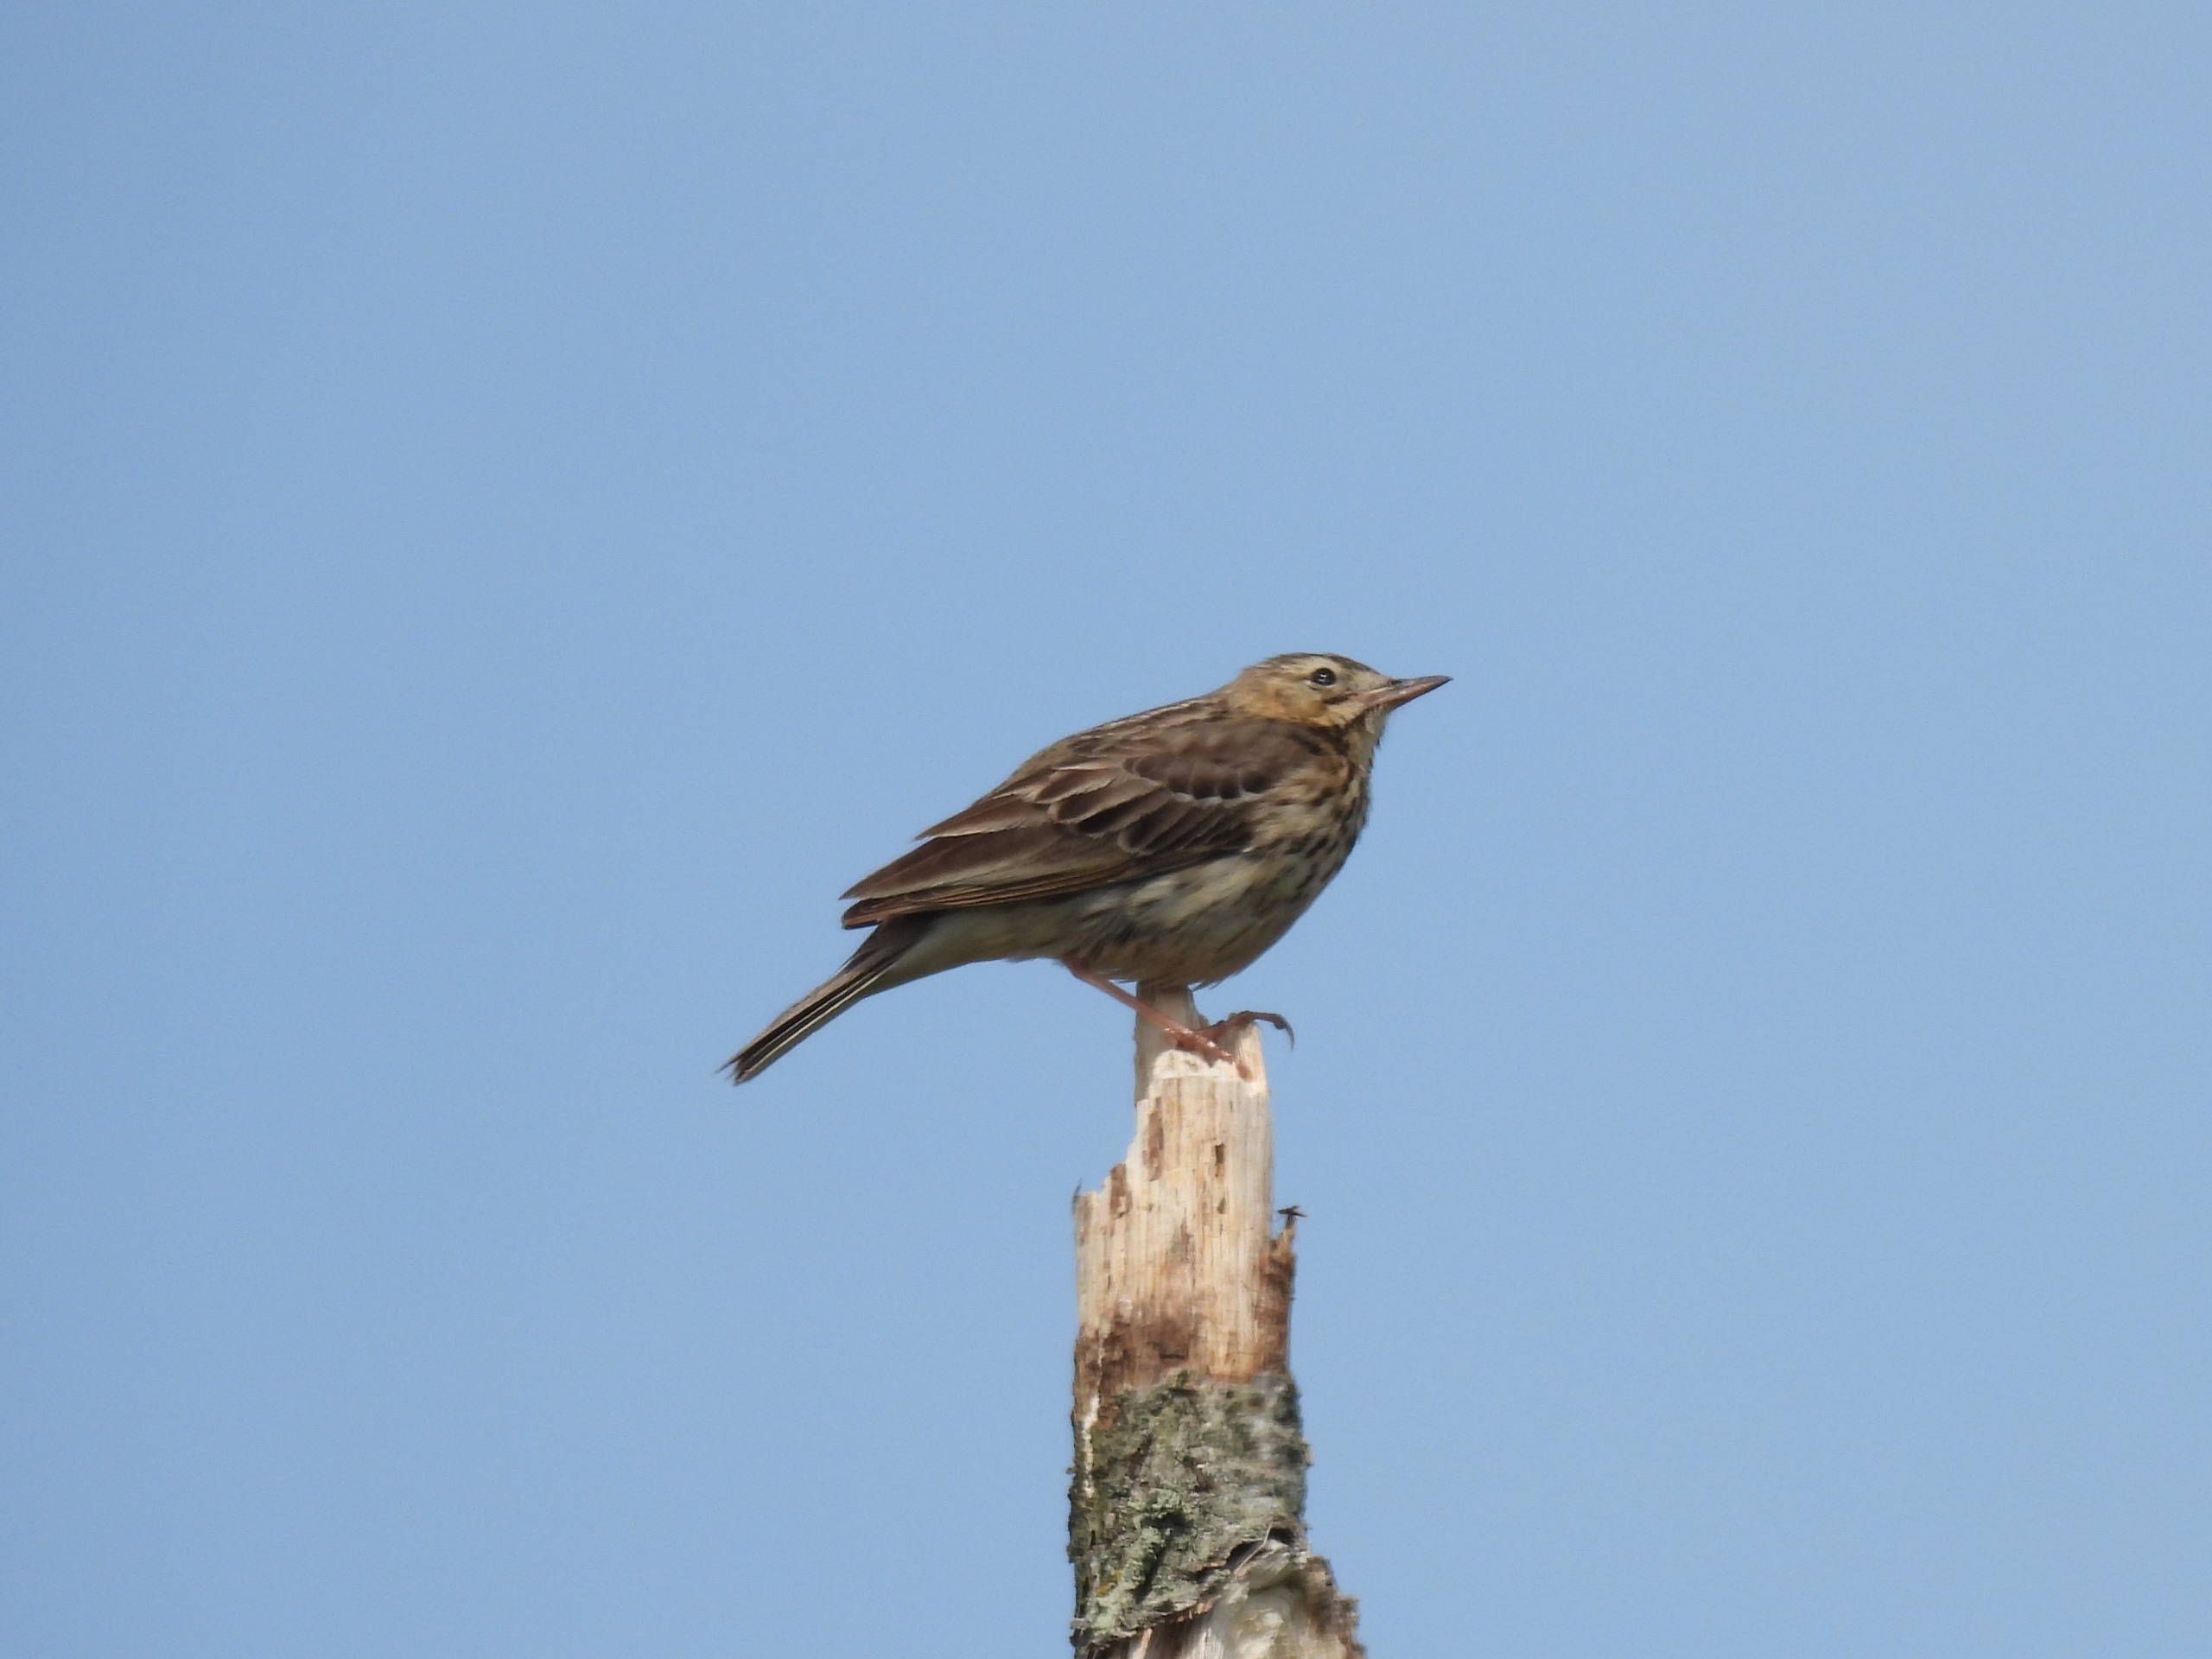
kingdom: Animalia
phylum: Chordata
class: Aves
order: Passeriformes
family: Motacillidae
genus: Anthus
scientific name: Anthus trivialis
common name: Skovpiber
